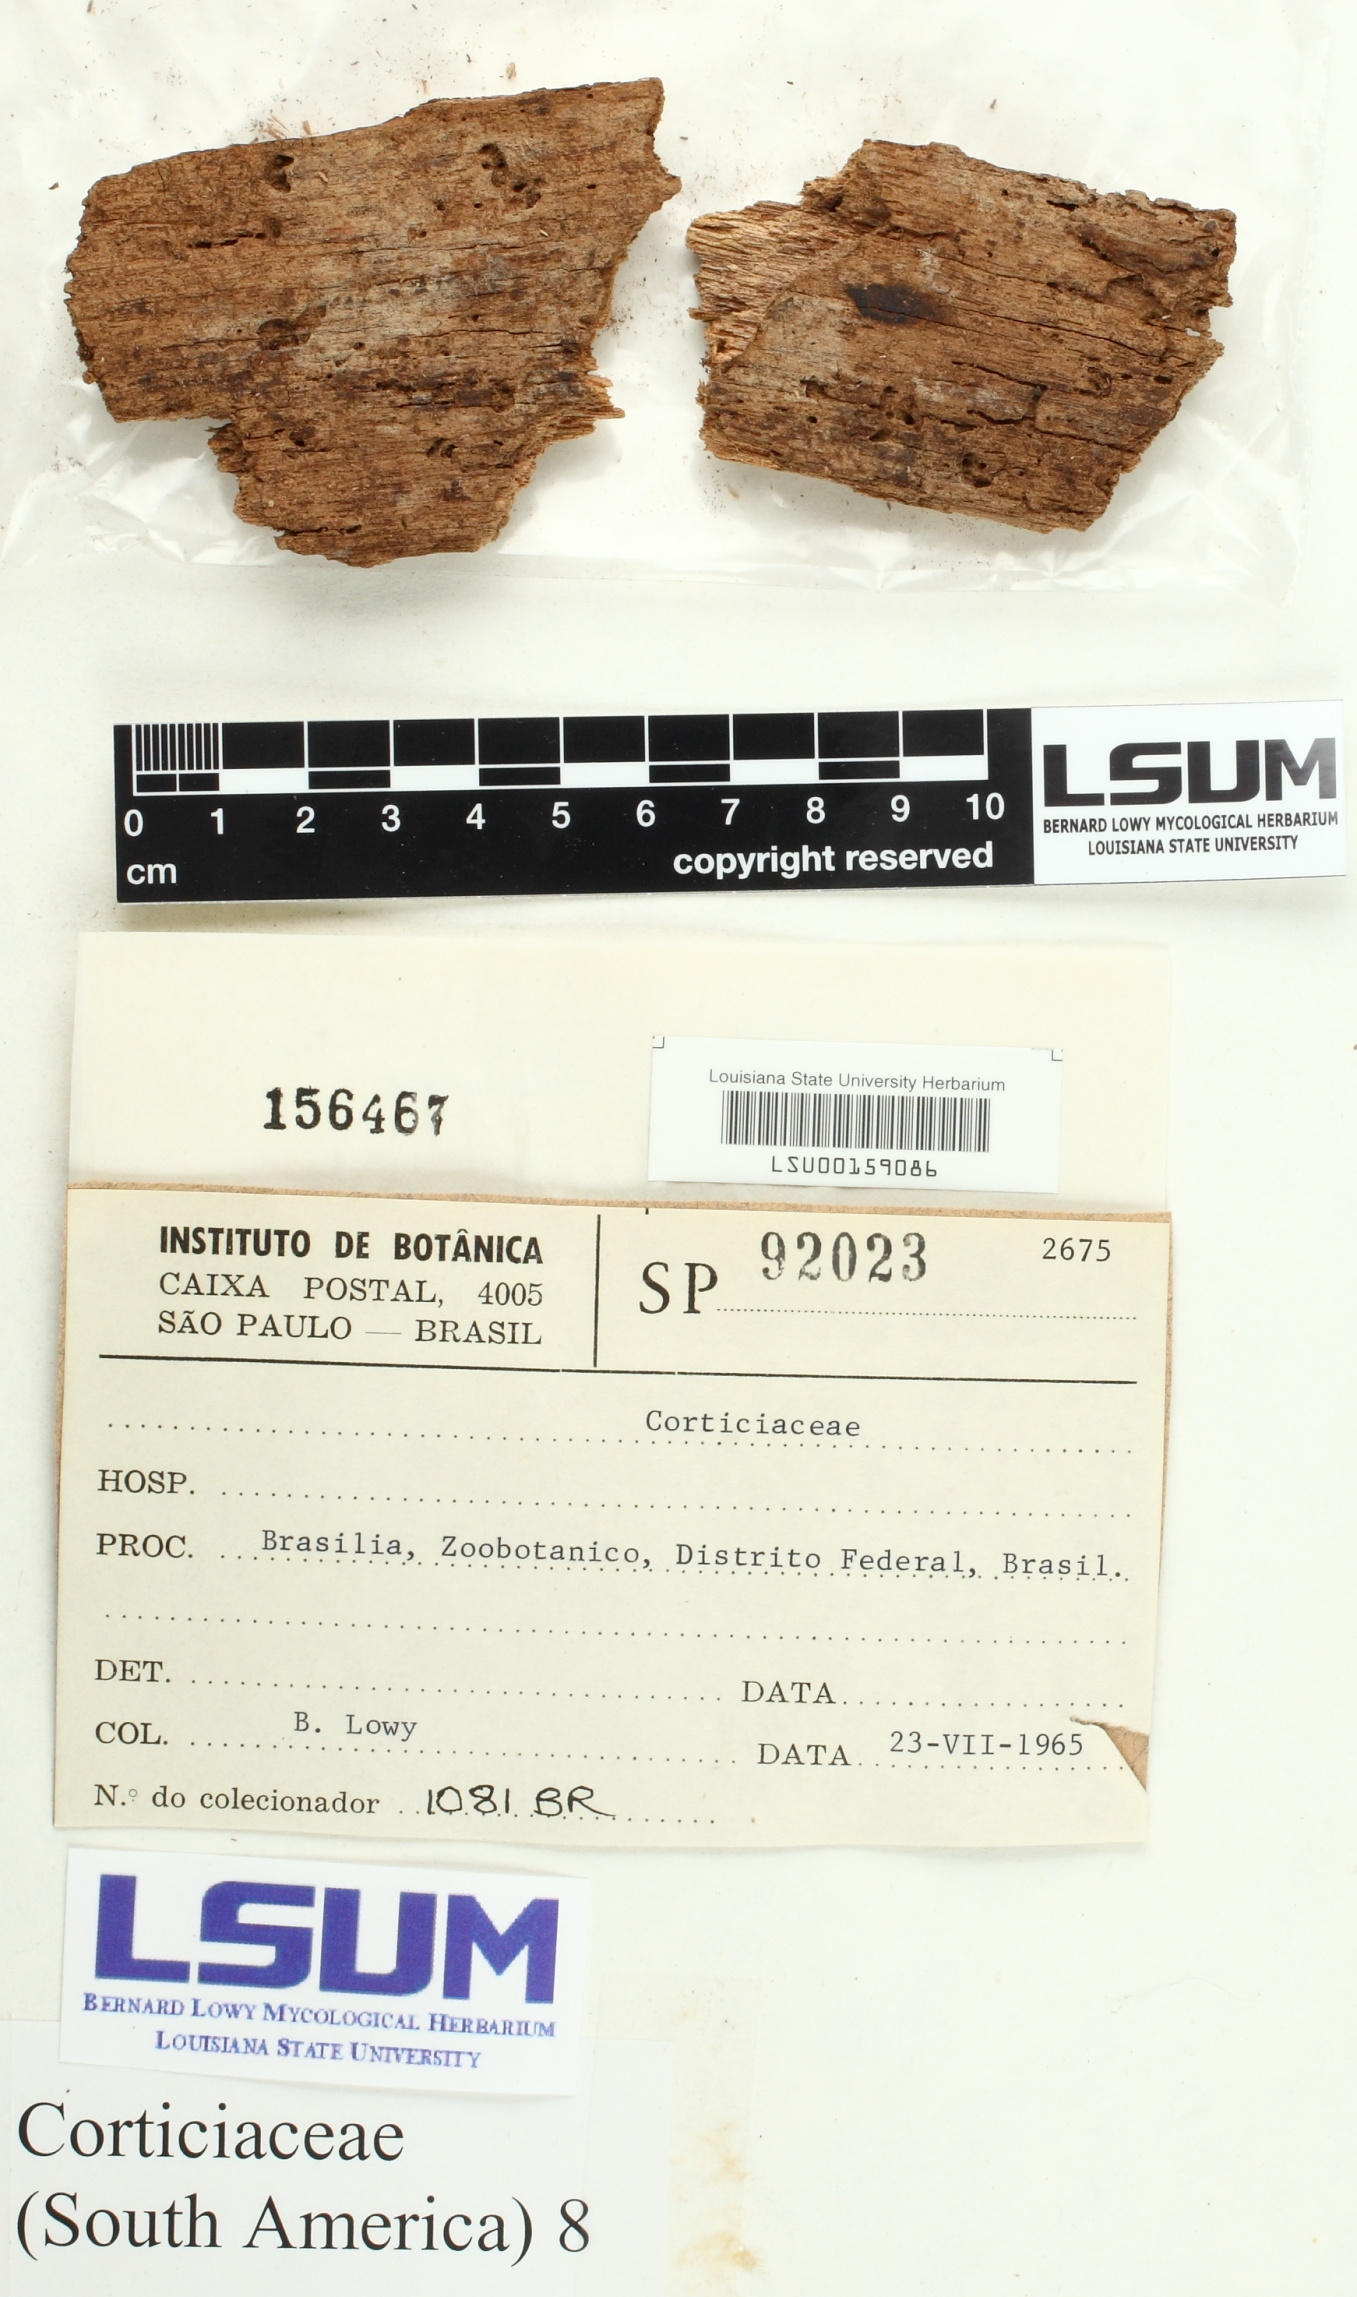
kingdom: Fungi
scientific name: Fungi
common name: Fungi
